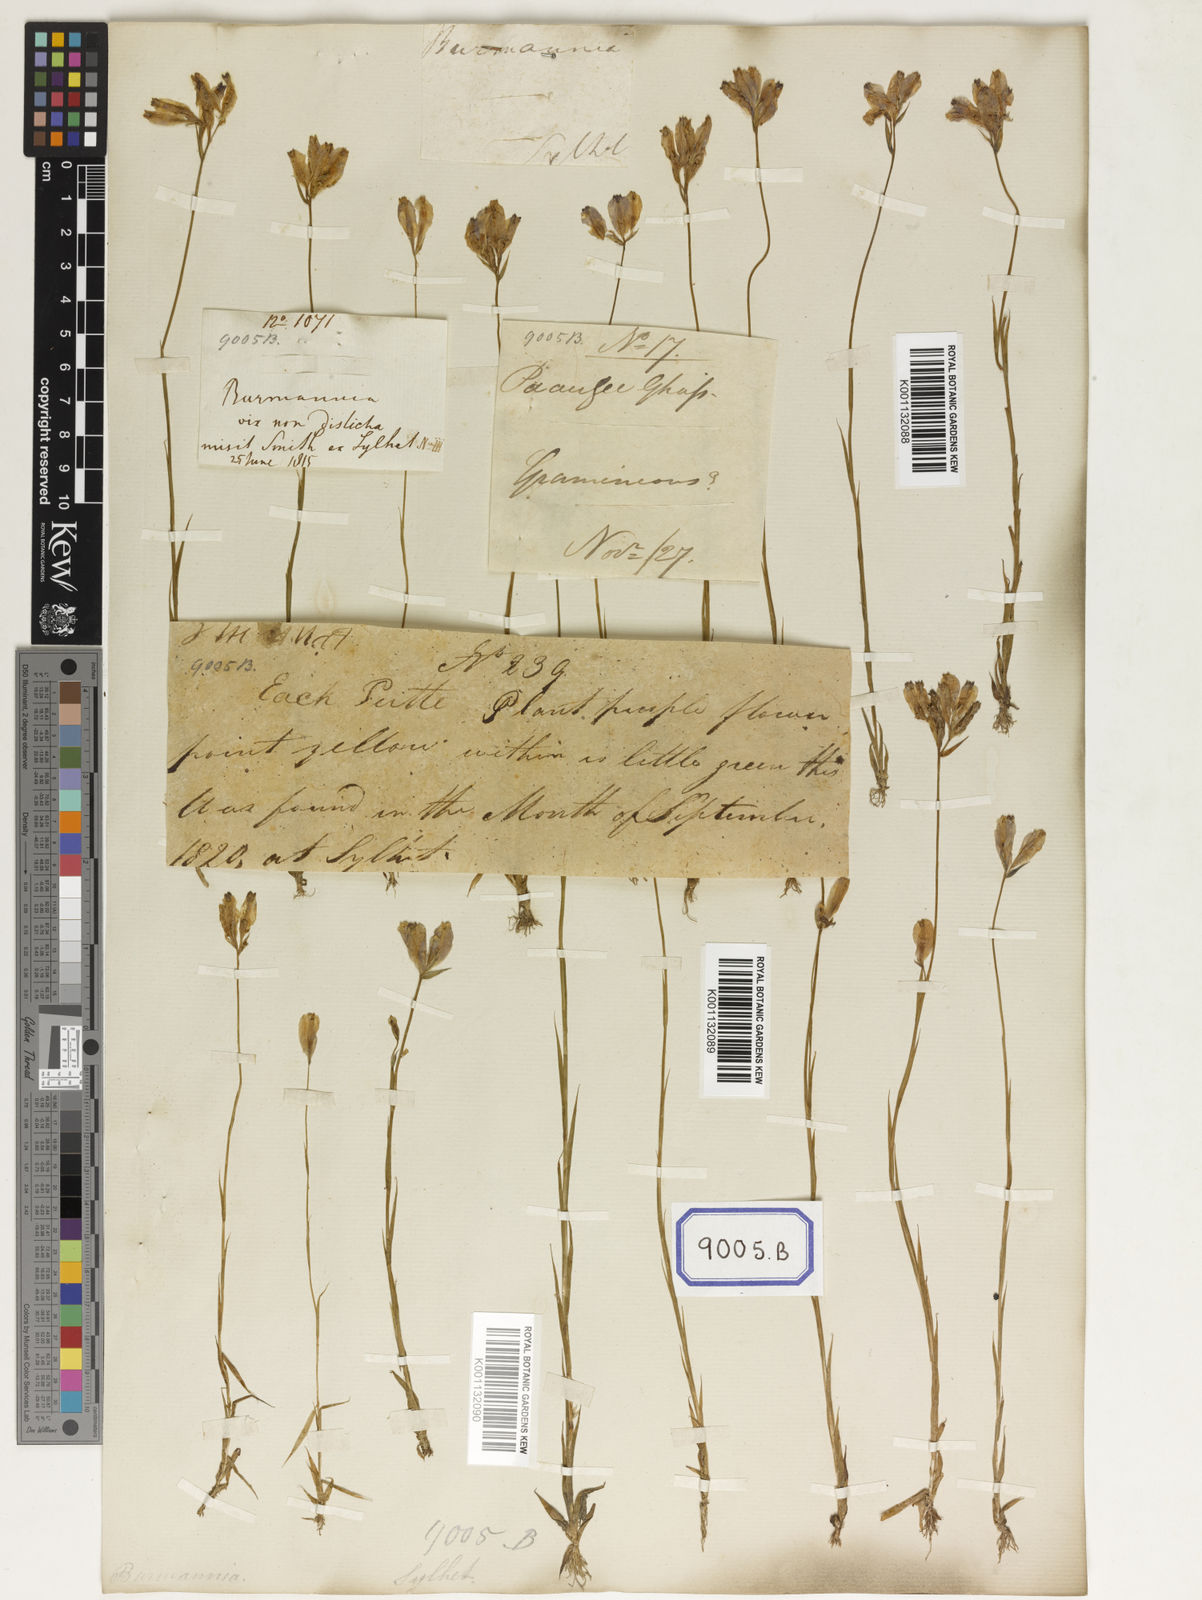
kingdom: Plantae
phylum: Tracheophyta
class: Liliopsida
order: Dioscoreales
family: Burmanniaceae
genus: Burmannia
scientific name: Burmannia coelestis
